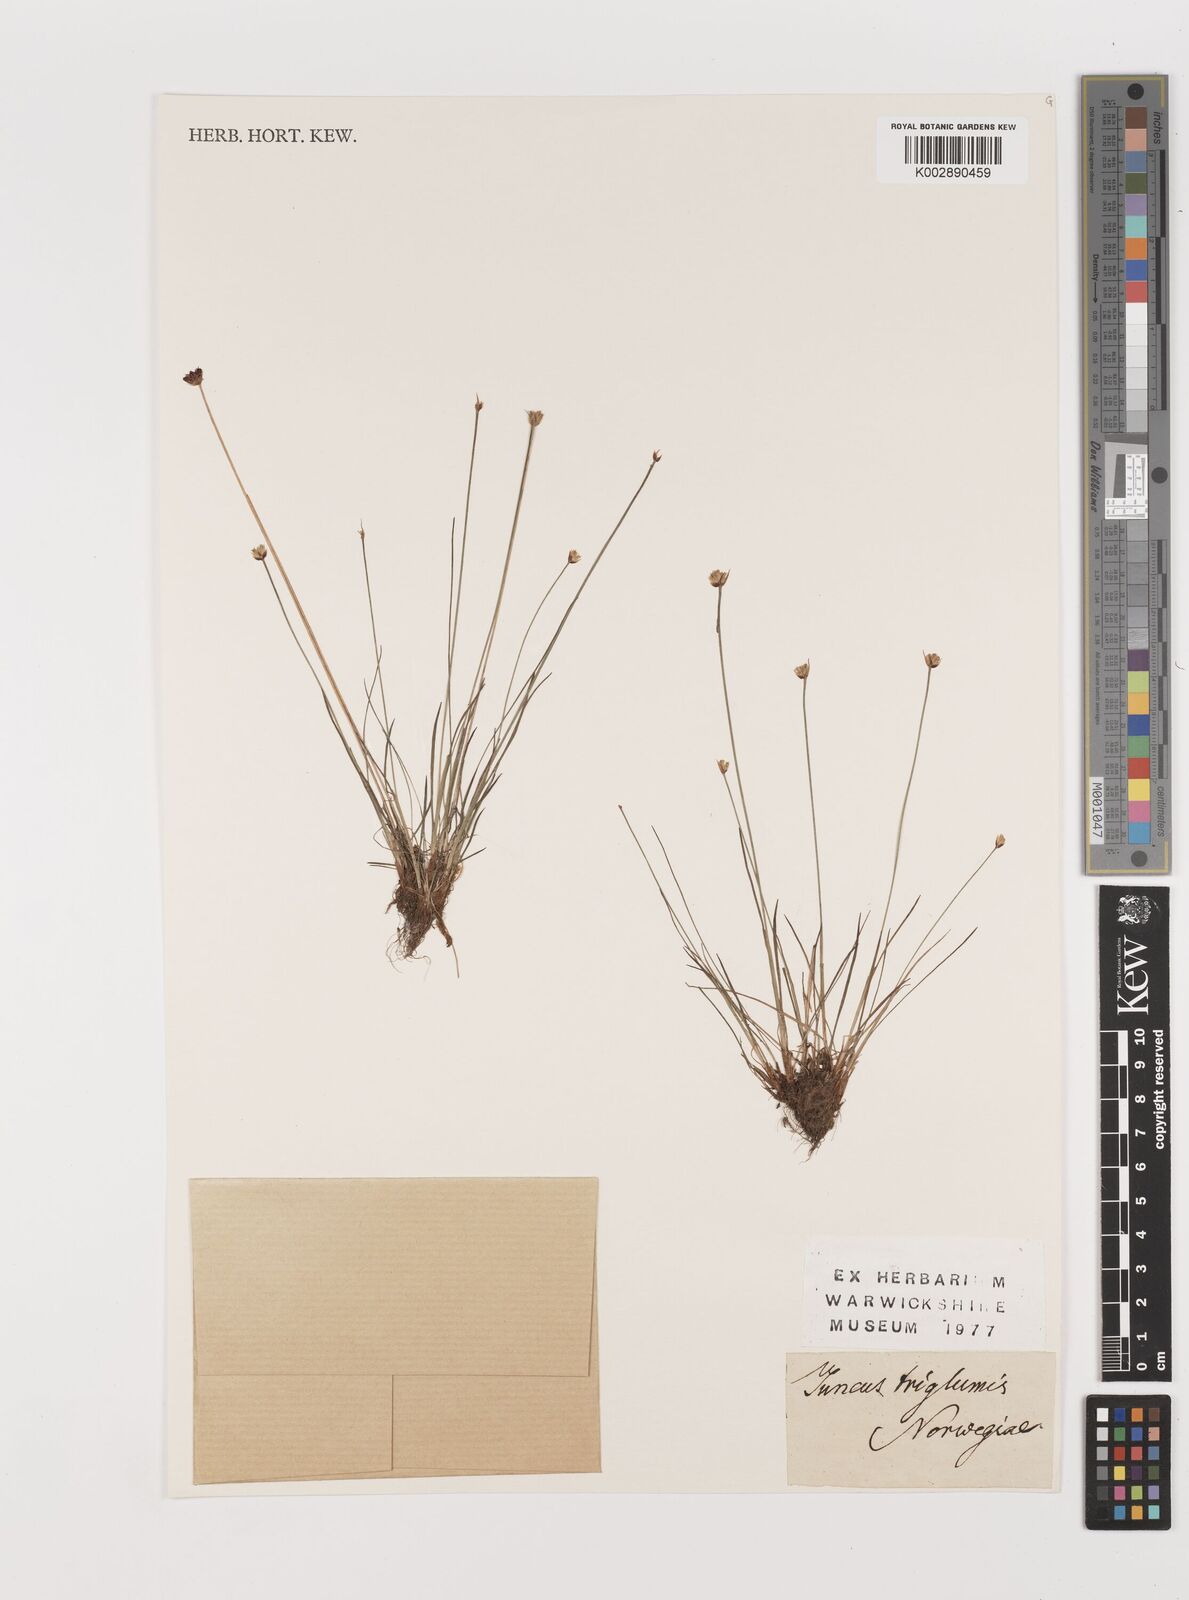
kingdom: Plantae
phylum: Tracheophyta
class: Liliopsida
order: Poales
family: Juncaceae
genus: Juncus
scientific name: Juncus triglumis
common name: Three-flowered rush
